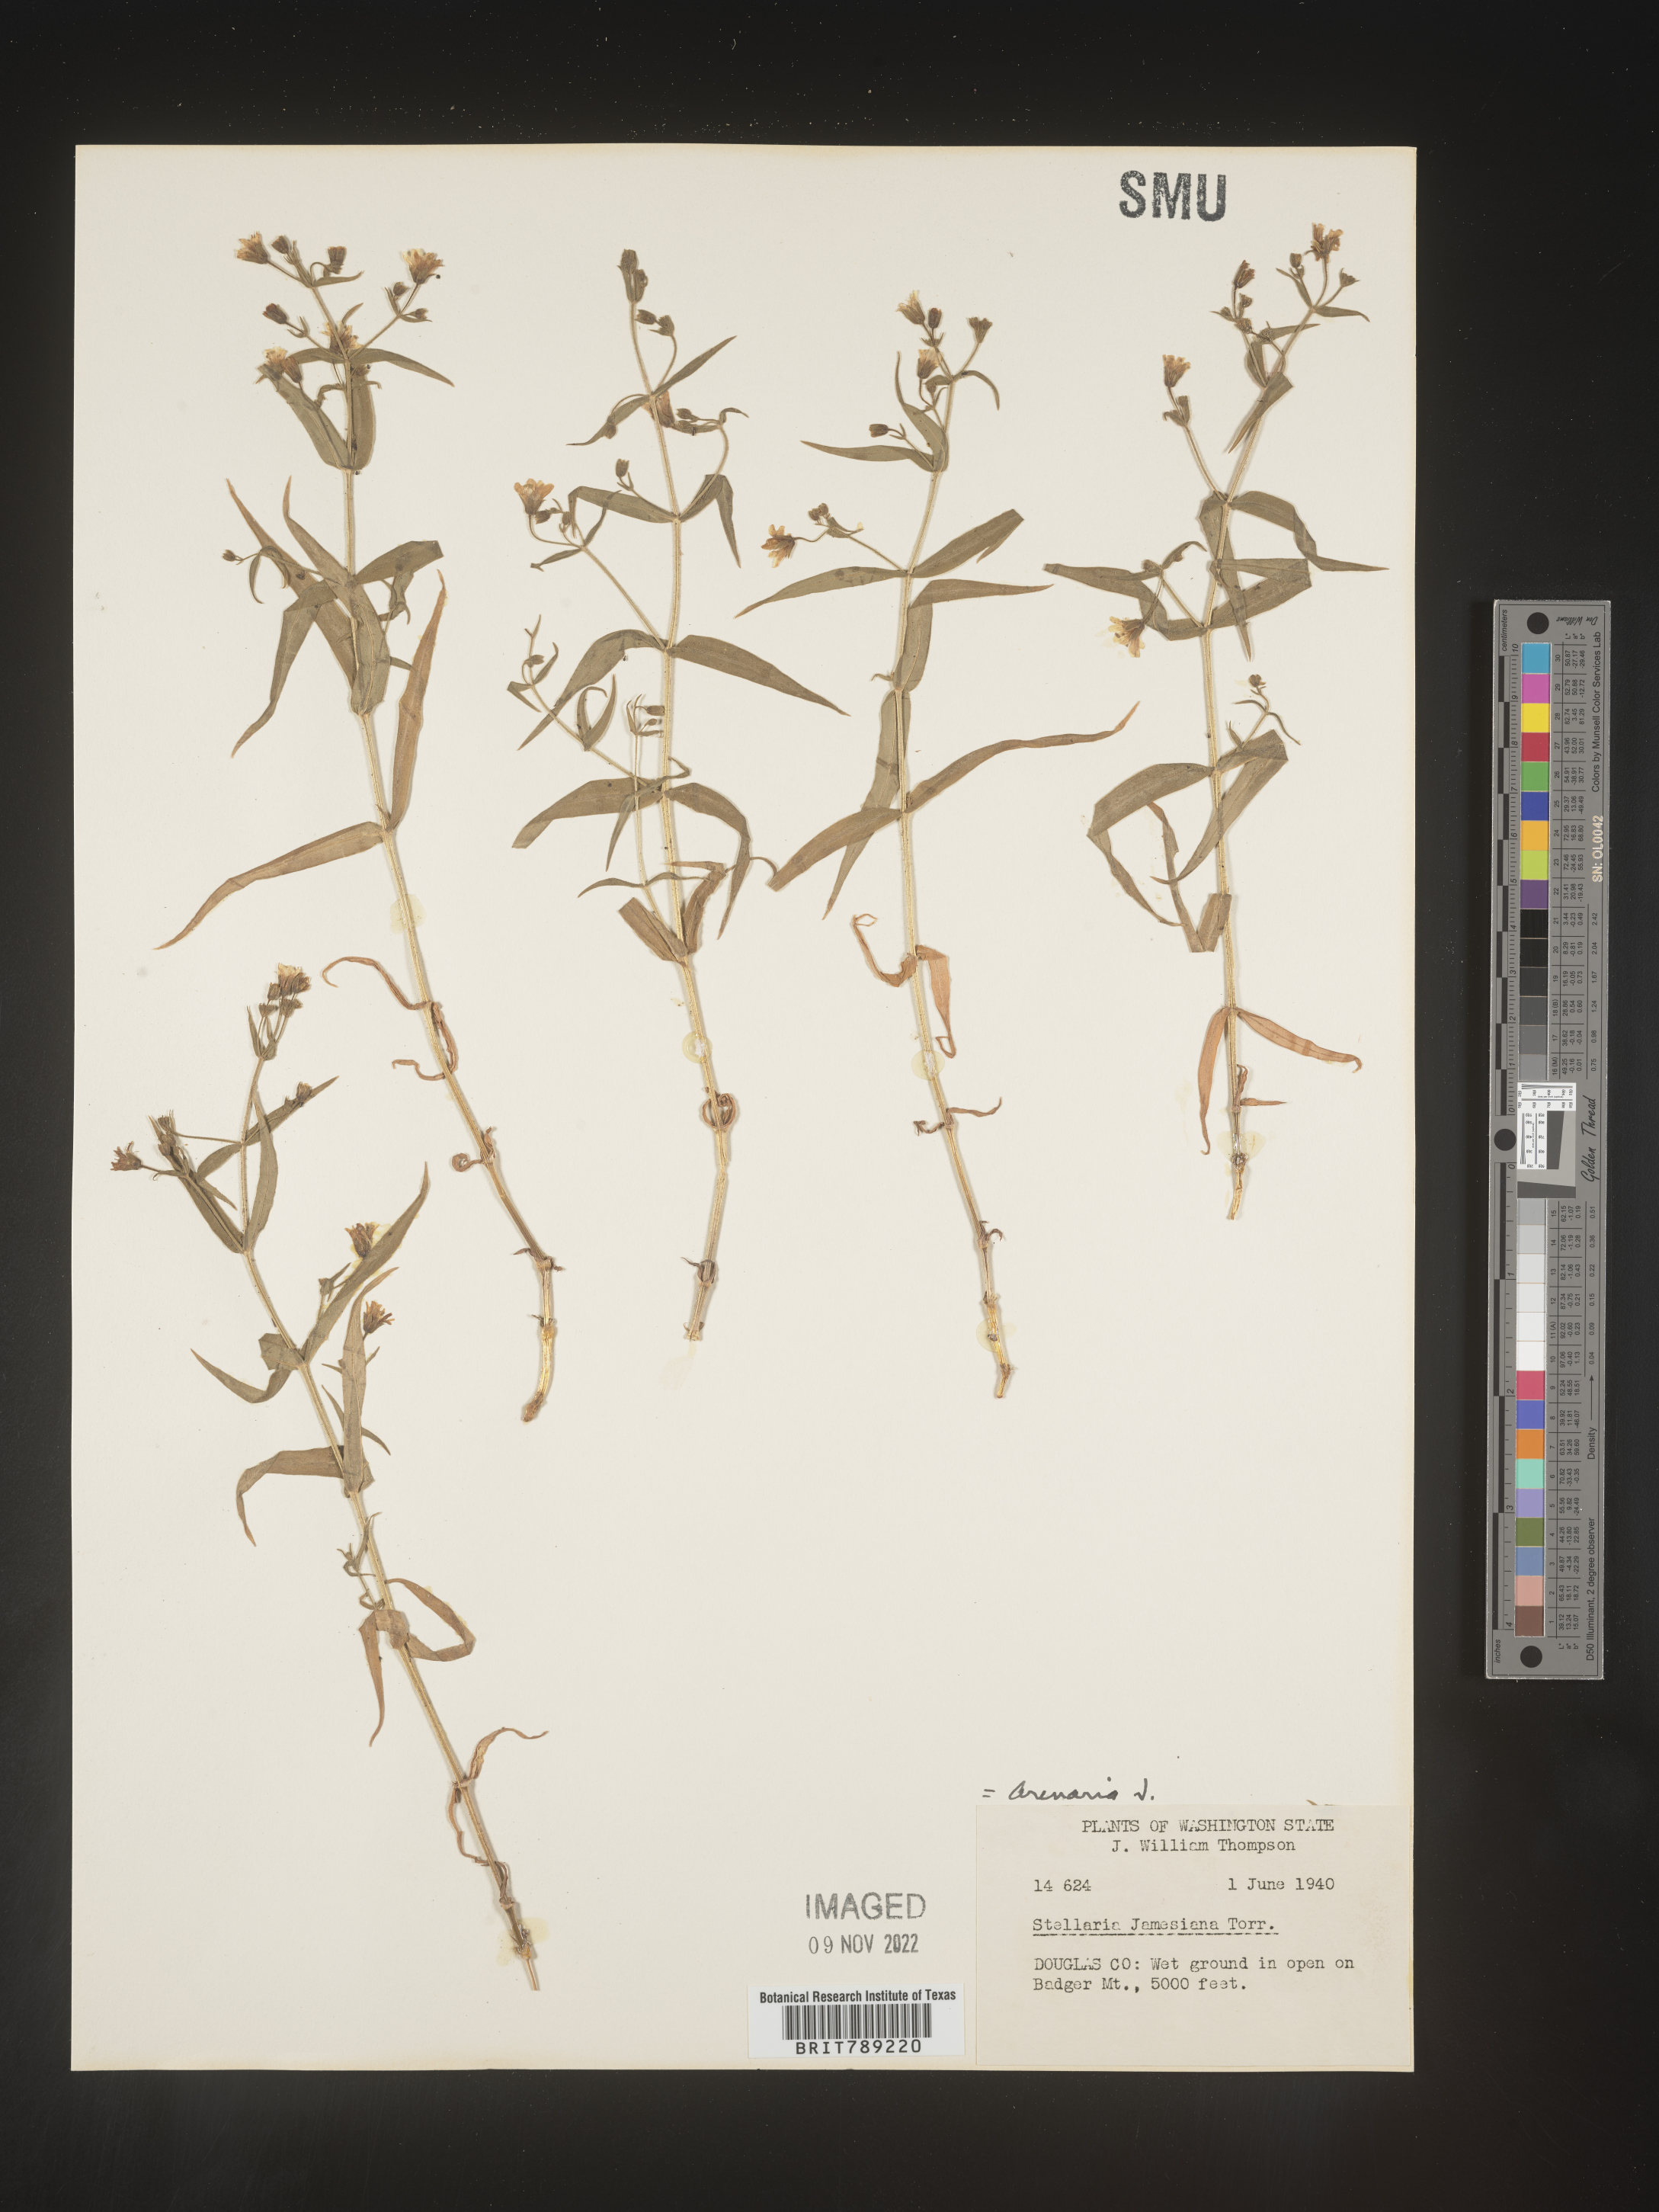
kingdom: Plantae
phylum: Tracheophyta
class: Magnoliopsida
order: Caryophyllales
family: Caryophyllaceae
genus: Arenaria
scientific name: Arenaria
